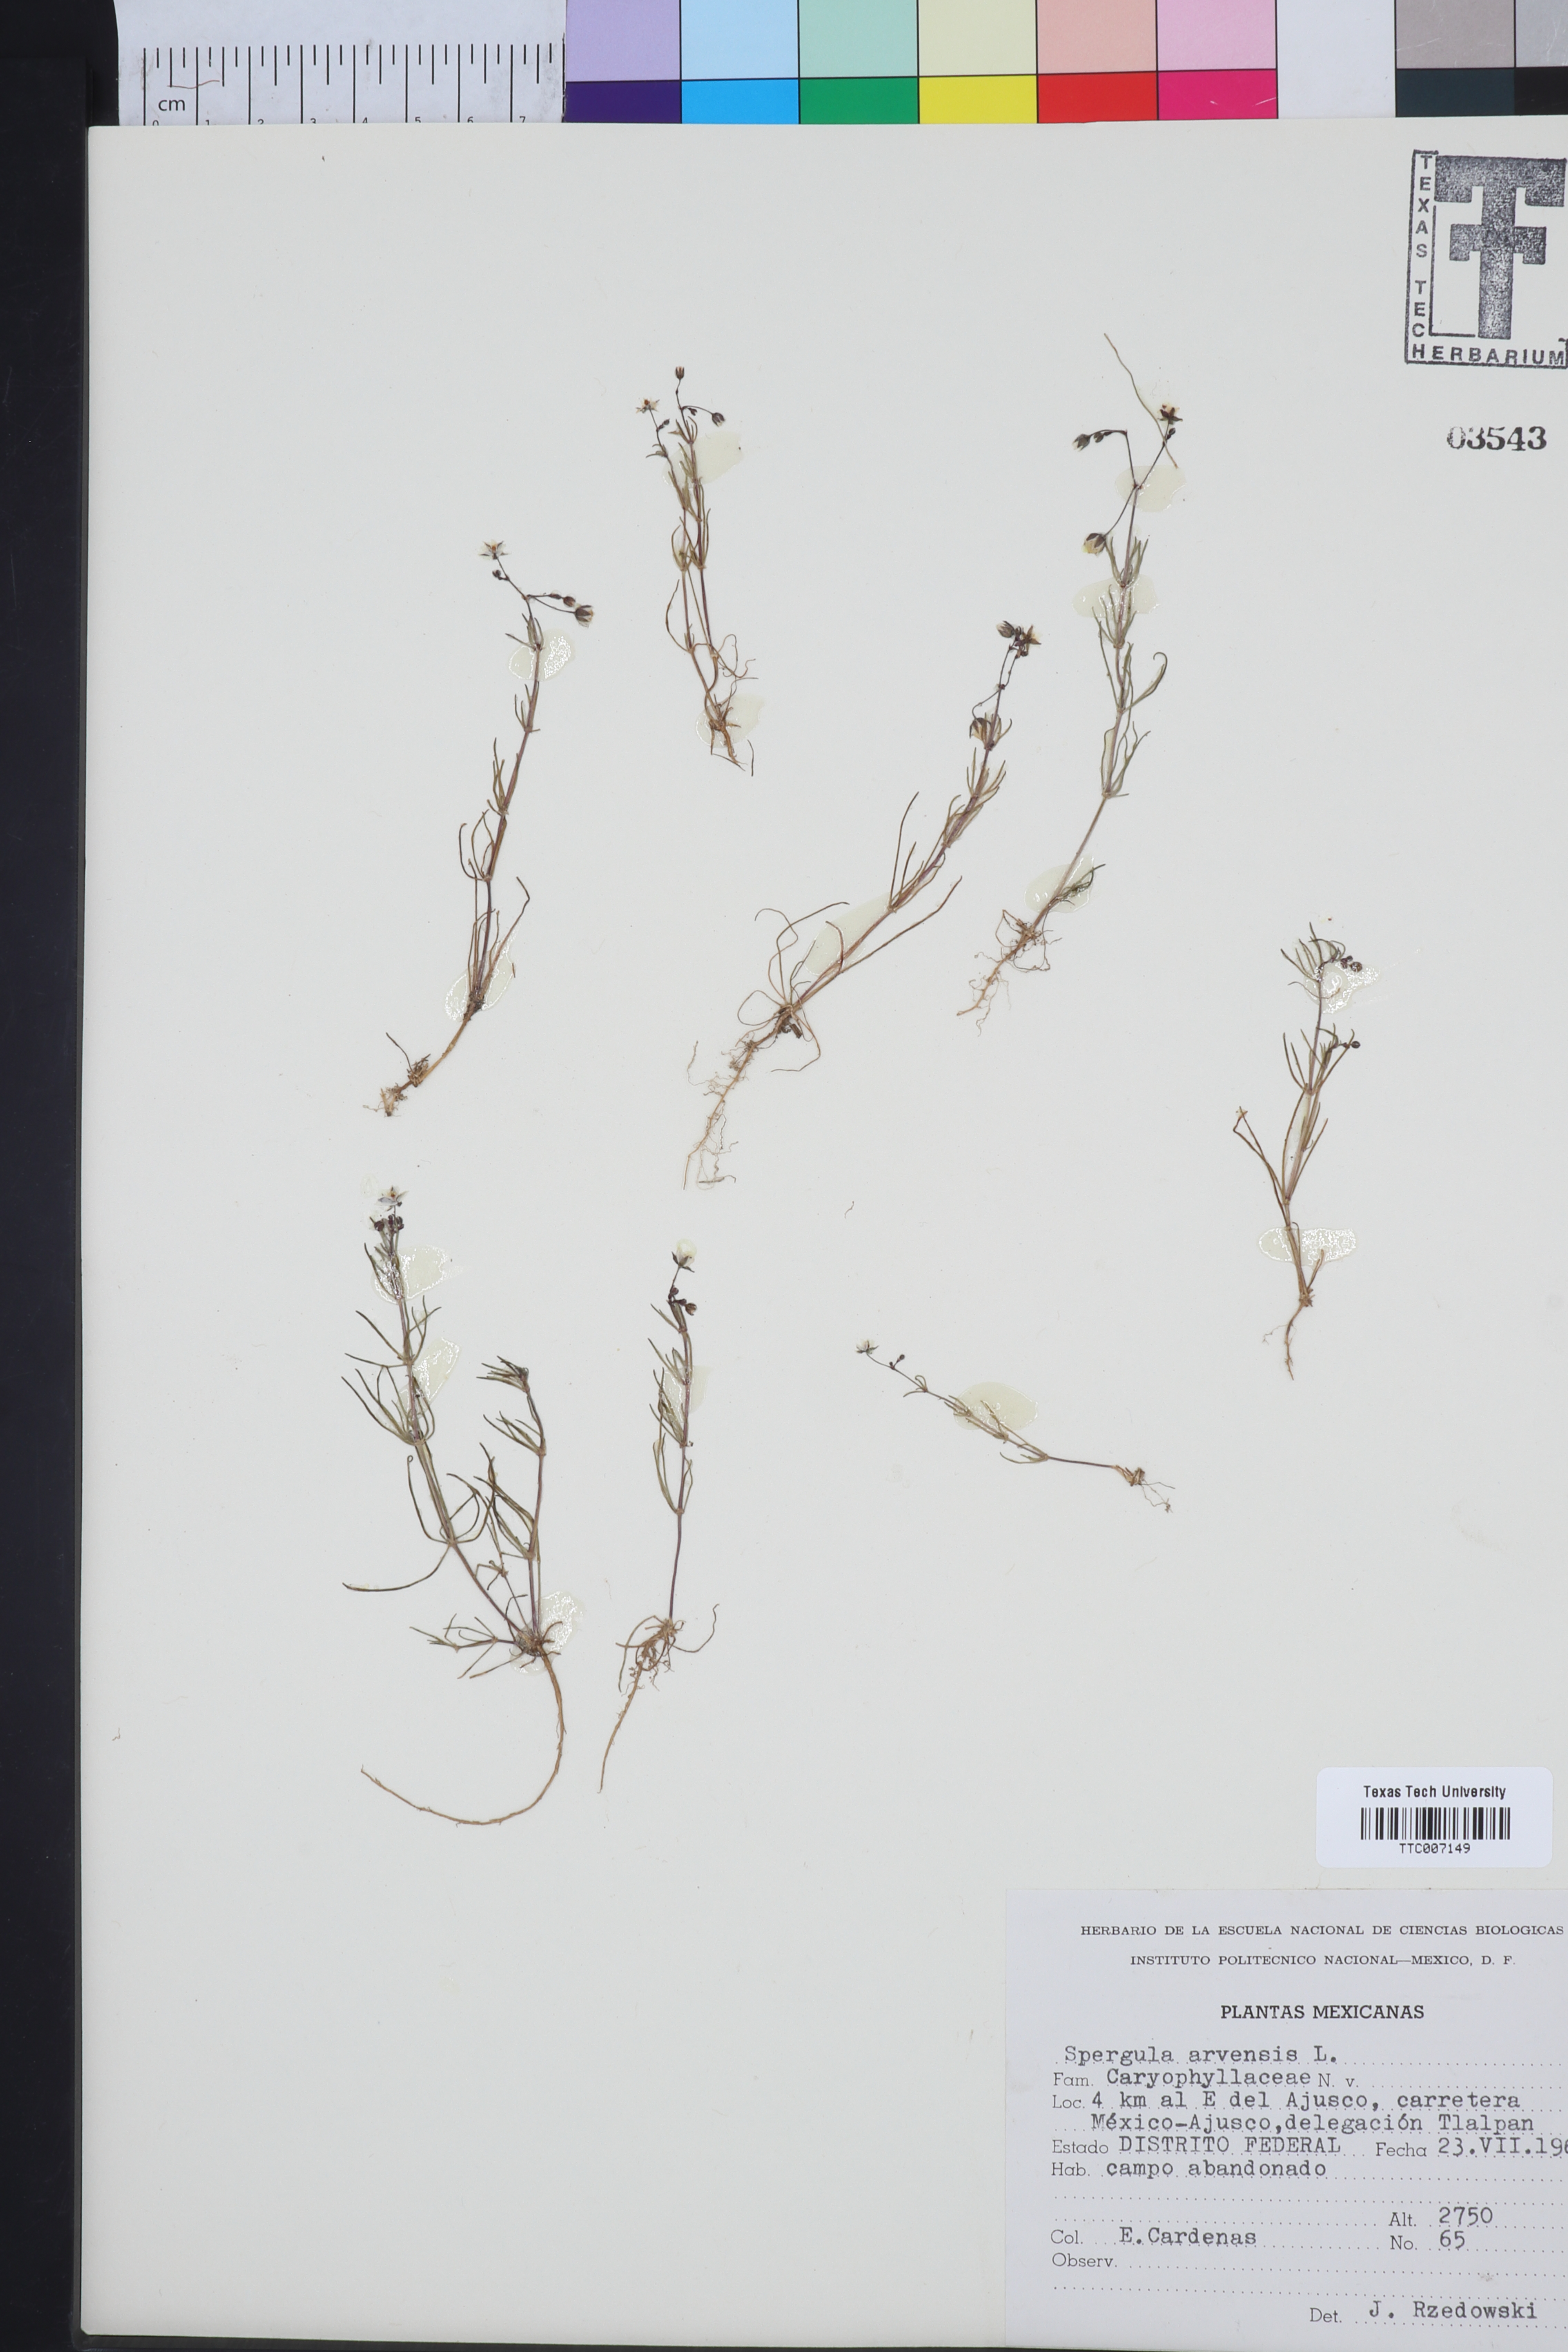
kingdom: Plantae
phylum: Tracheophyta
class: Magnoliopsida
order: Caryophyllales
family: Caryophyllaceae
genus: Spergula
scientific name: Spergula arvensis
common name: Corn spurrey
